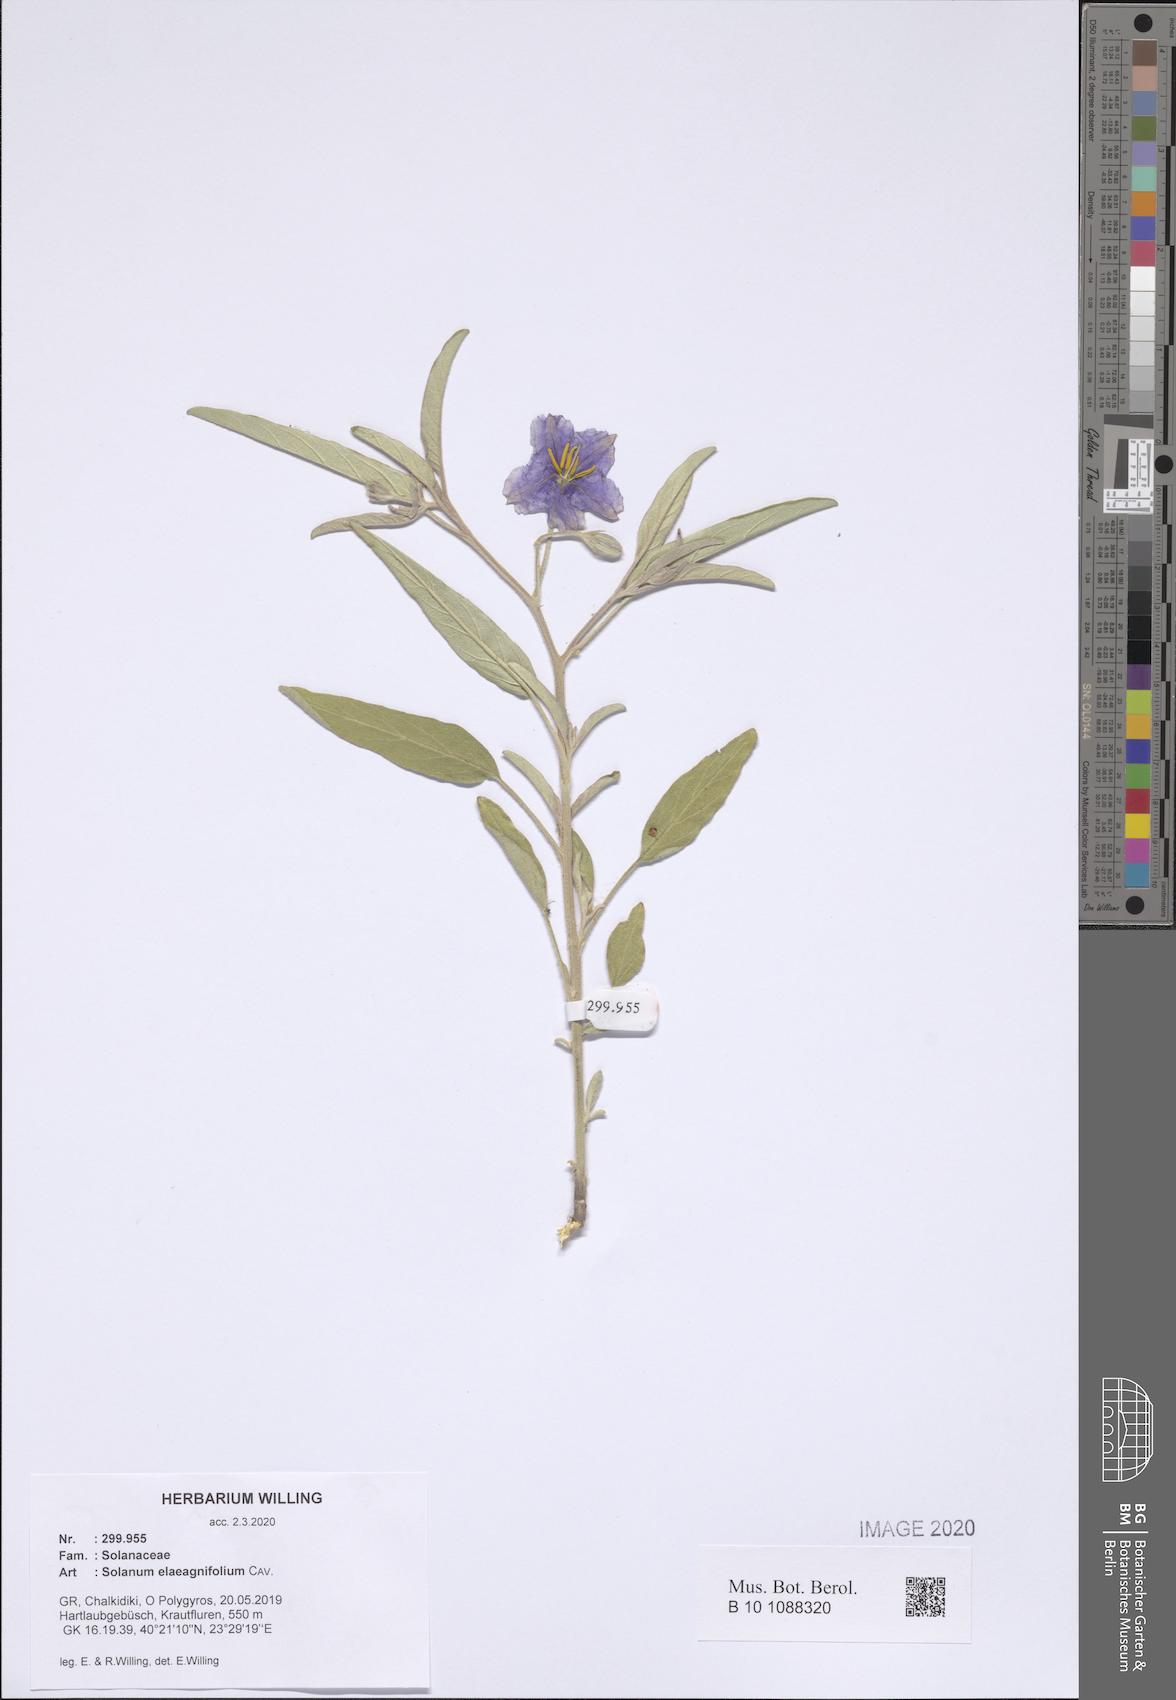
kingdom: Plantae
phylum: Tracheophyta
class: Magnoliopsida
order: Solanales
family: Solanaceae
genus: Solanum
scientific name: Solanum elaeagnifolium
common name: Silverleaf nightshade
